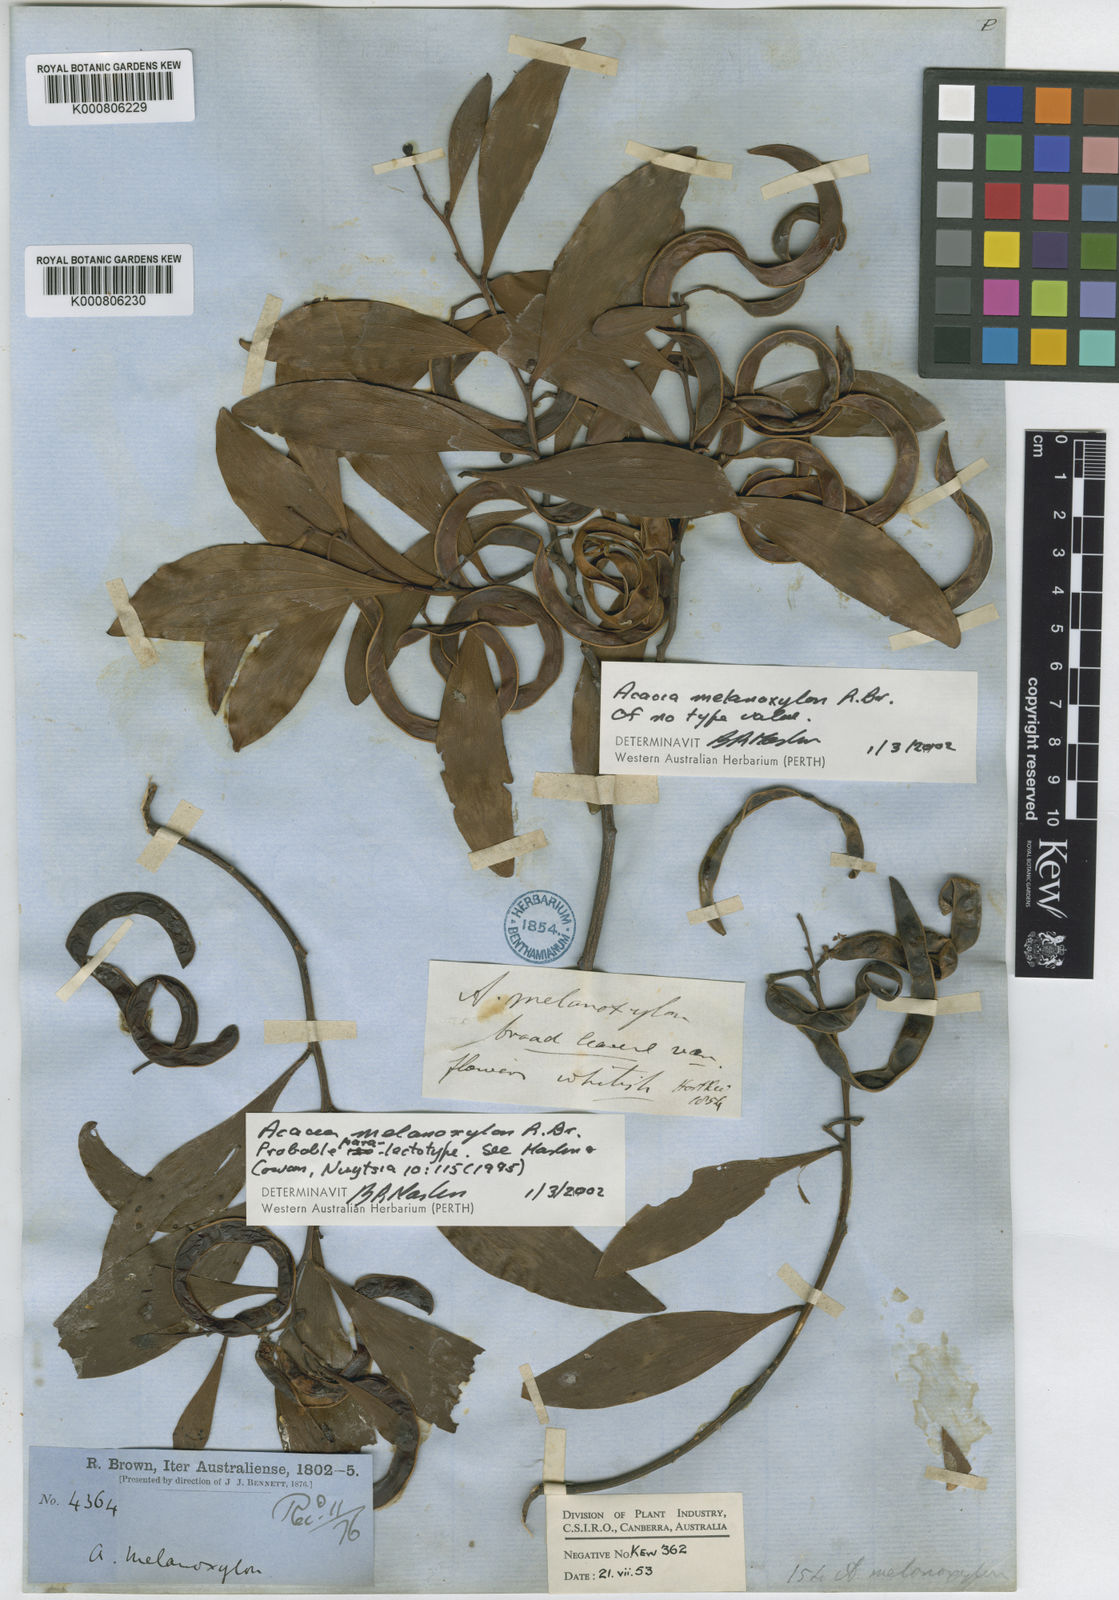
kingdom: Plantae
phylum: Tracheophyta
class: Magnoliopsida
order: Fabales
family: Fabaceae
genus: Acacia
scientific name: Acacia melanoxylon
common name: Blackwood
